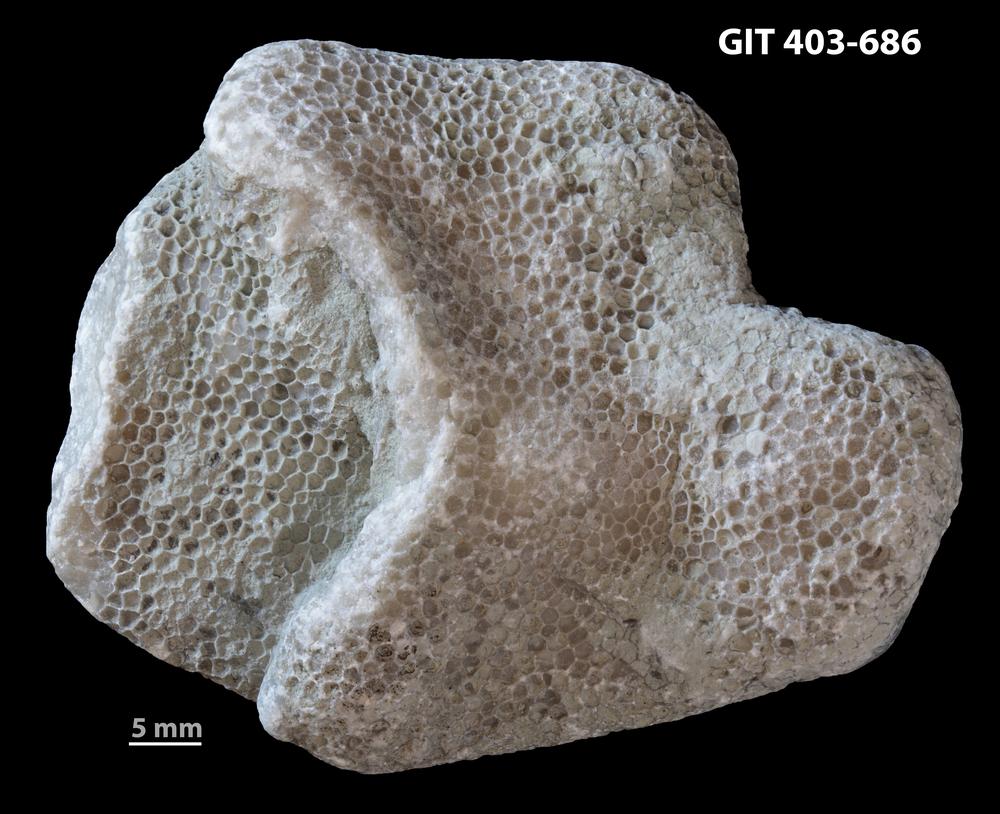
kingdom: Animalia
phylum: Cnidaria
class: Anthozoa
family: Favositidae
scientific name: Favositidae
